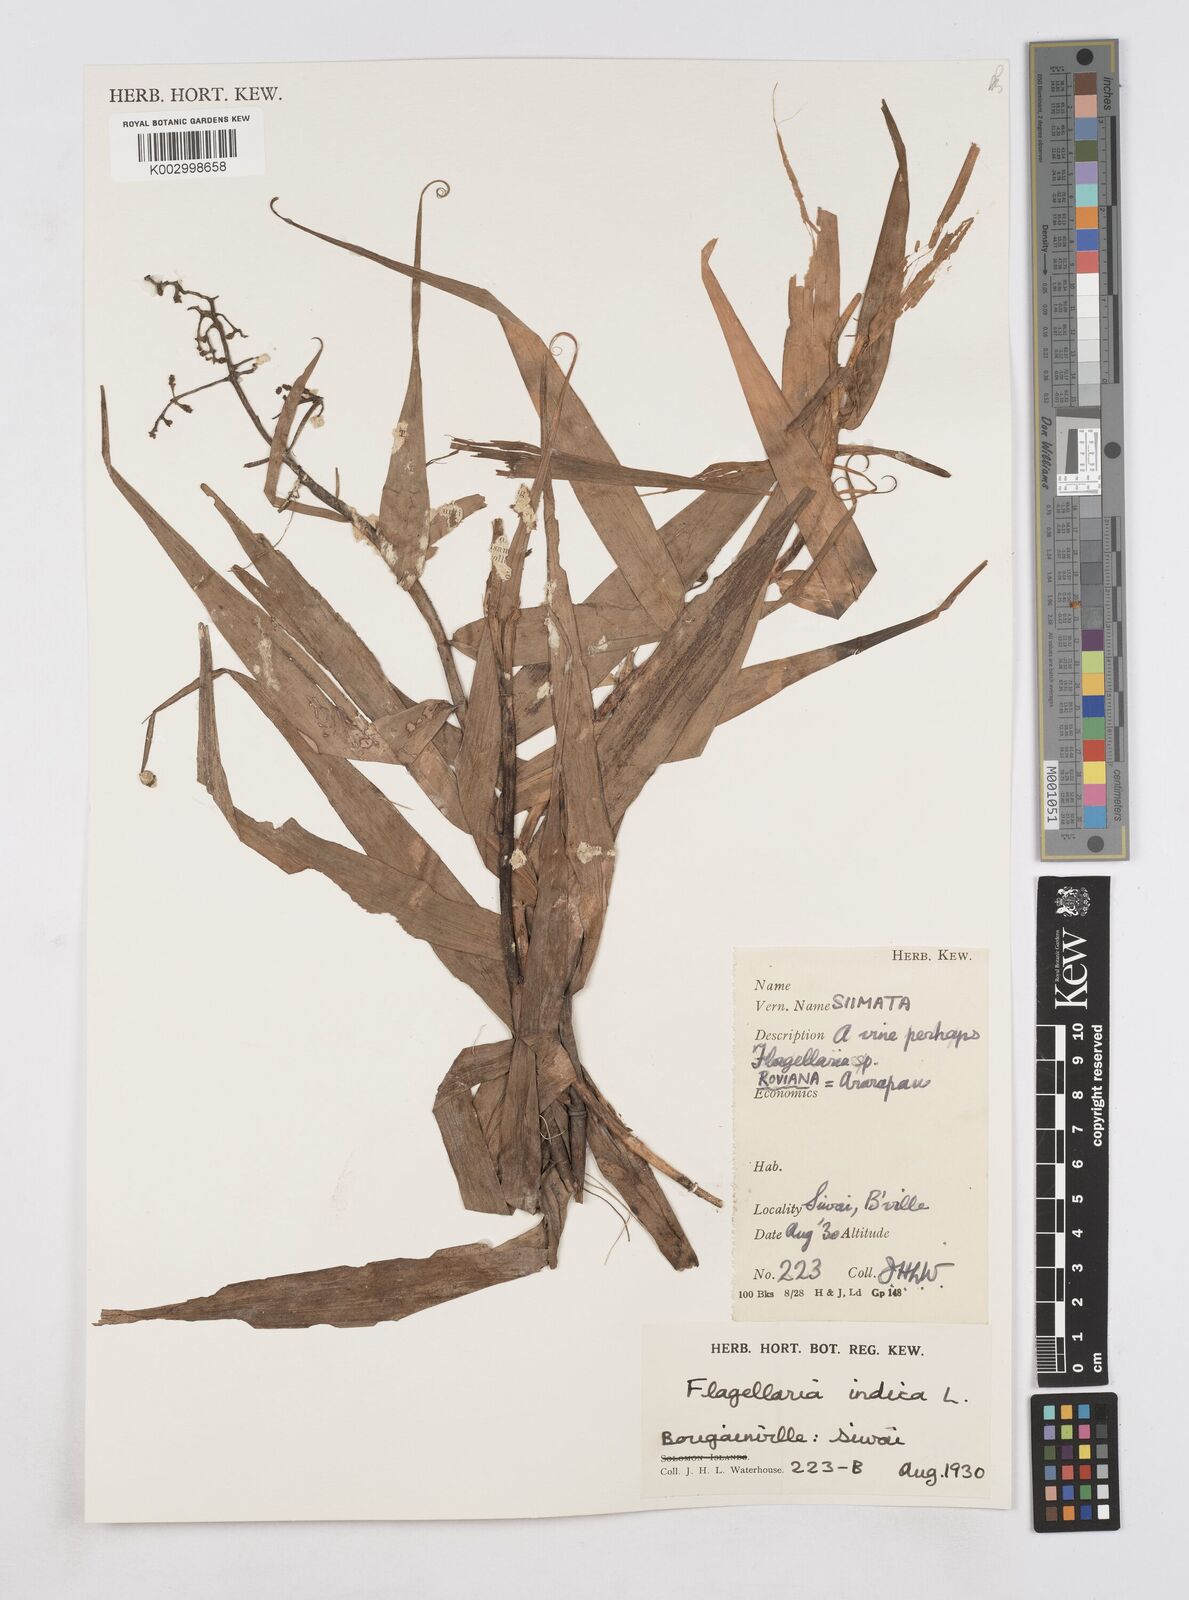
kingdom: Plantae
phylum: Tracheophyta
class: Liliopsida
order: Poales
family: Flagellariaceae
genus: Flagellaria
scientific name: Flagellaria indica
